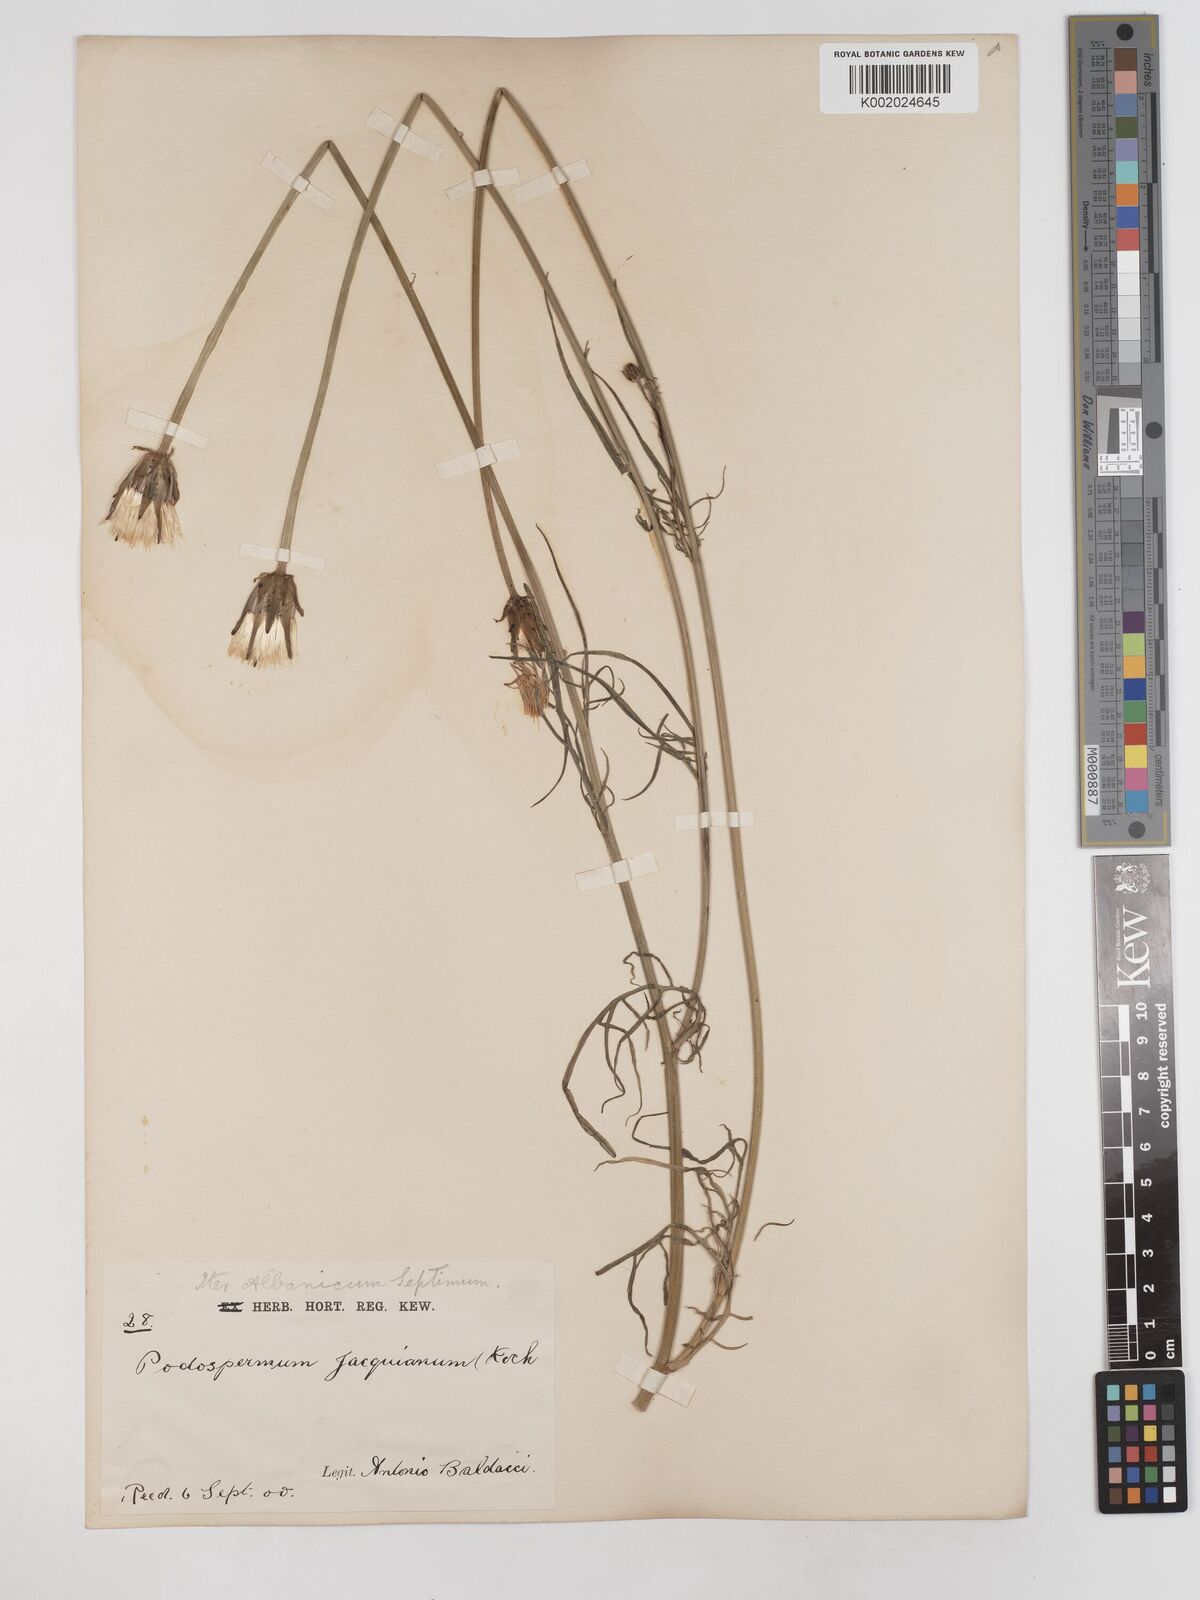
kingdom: Plantae
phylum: Tracheophyta
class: Magnoliopsida
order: Asterales
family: Asteraceae
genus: Scorzonera
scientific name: Scorzonera cana
